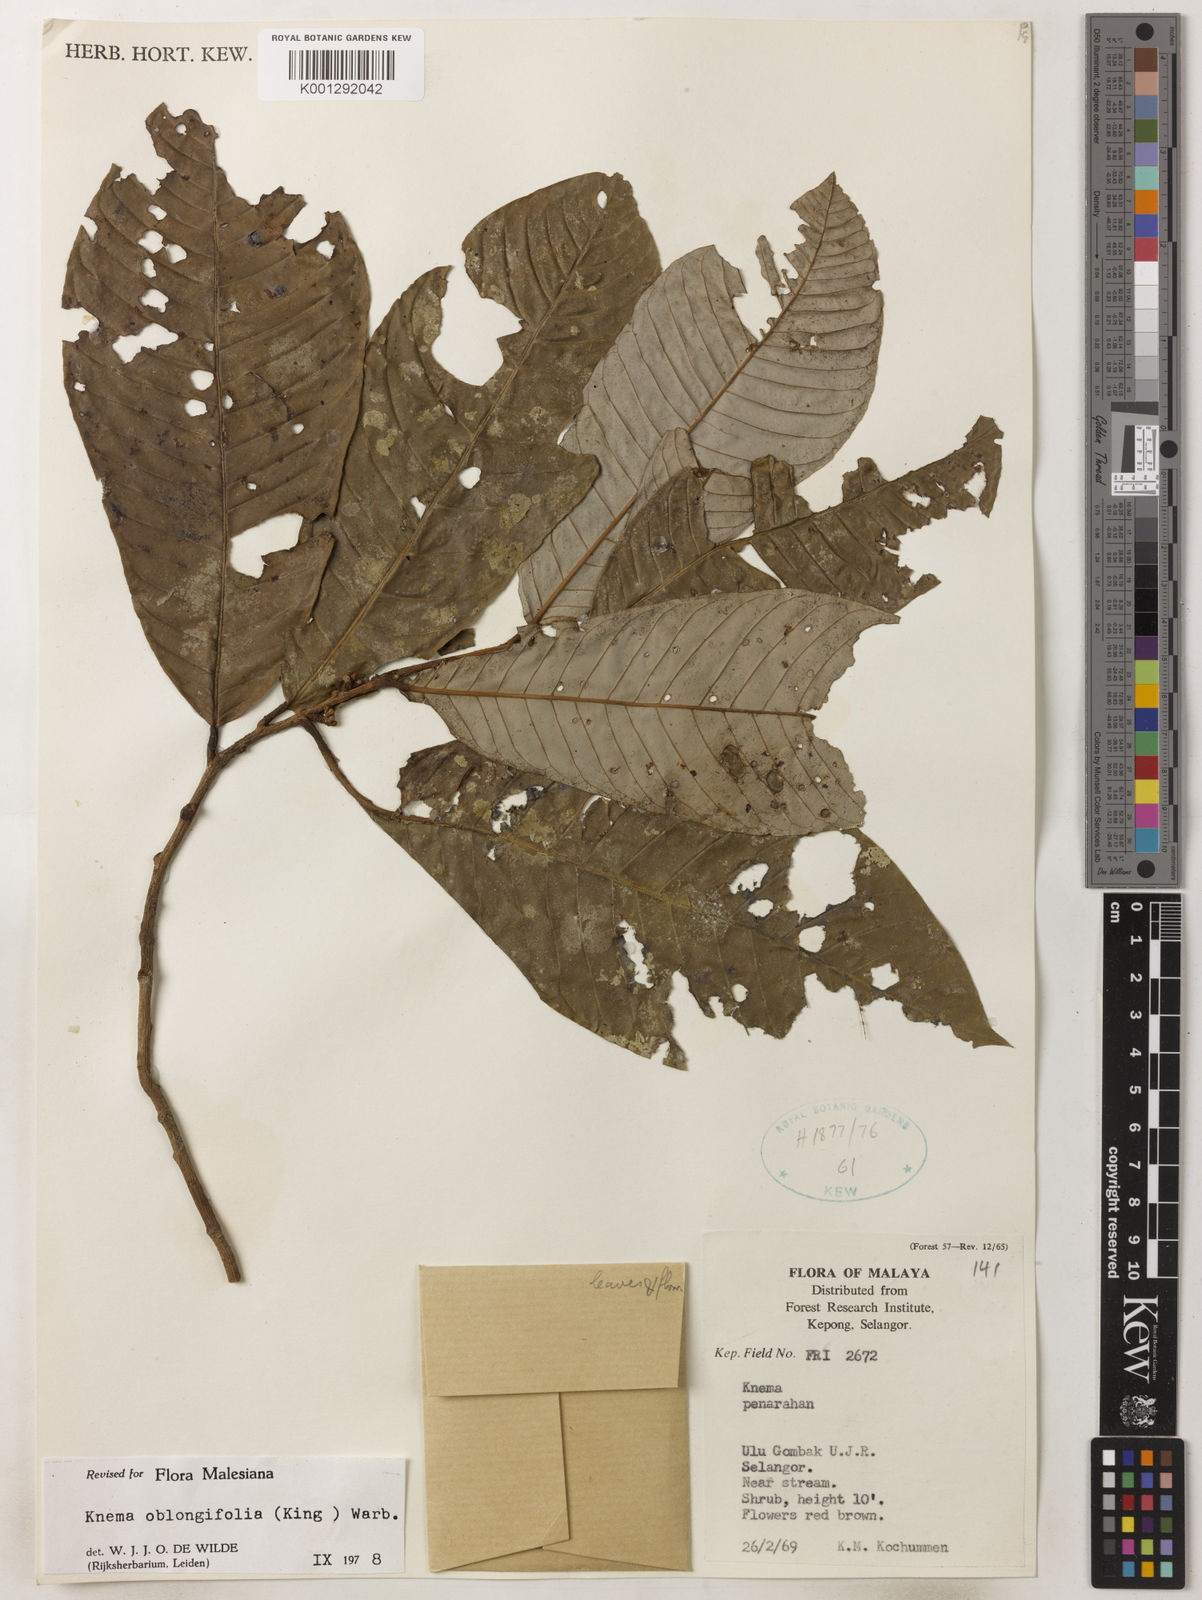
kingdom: Plantae
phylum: Tracheophyta
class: Magnoliopsida
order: Magnoliales
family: Myristicaceae
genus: Knema
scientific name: Knema oblongifolia
